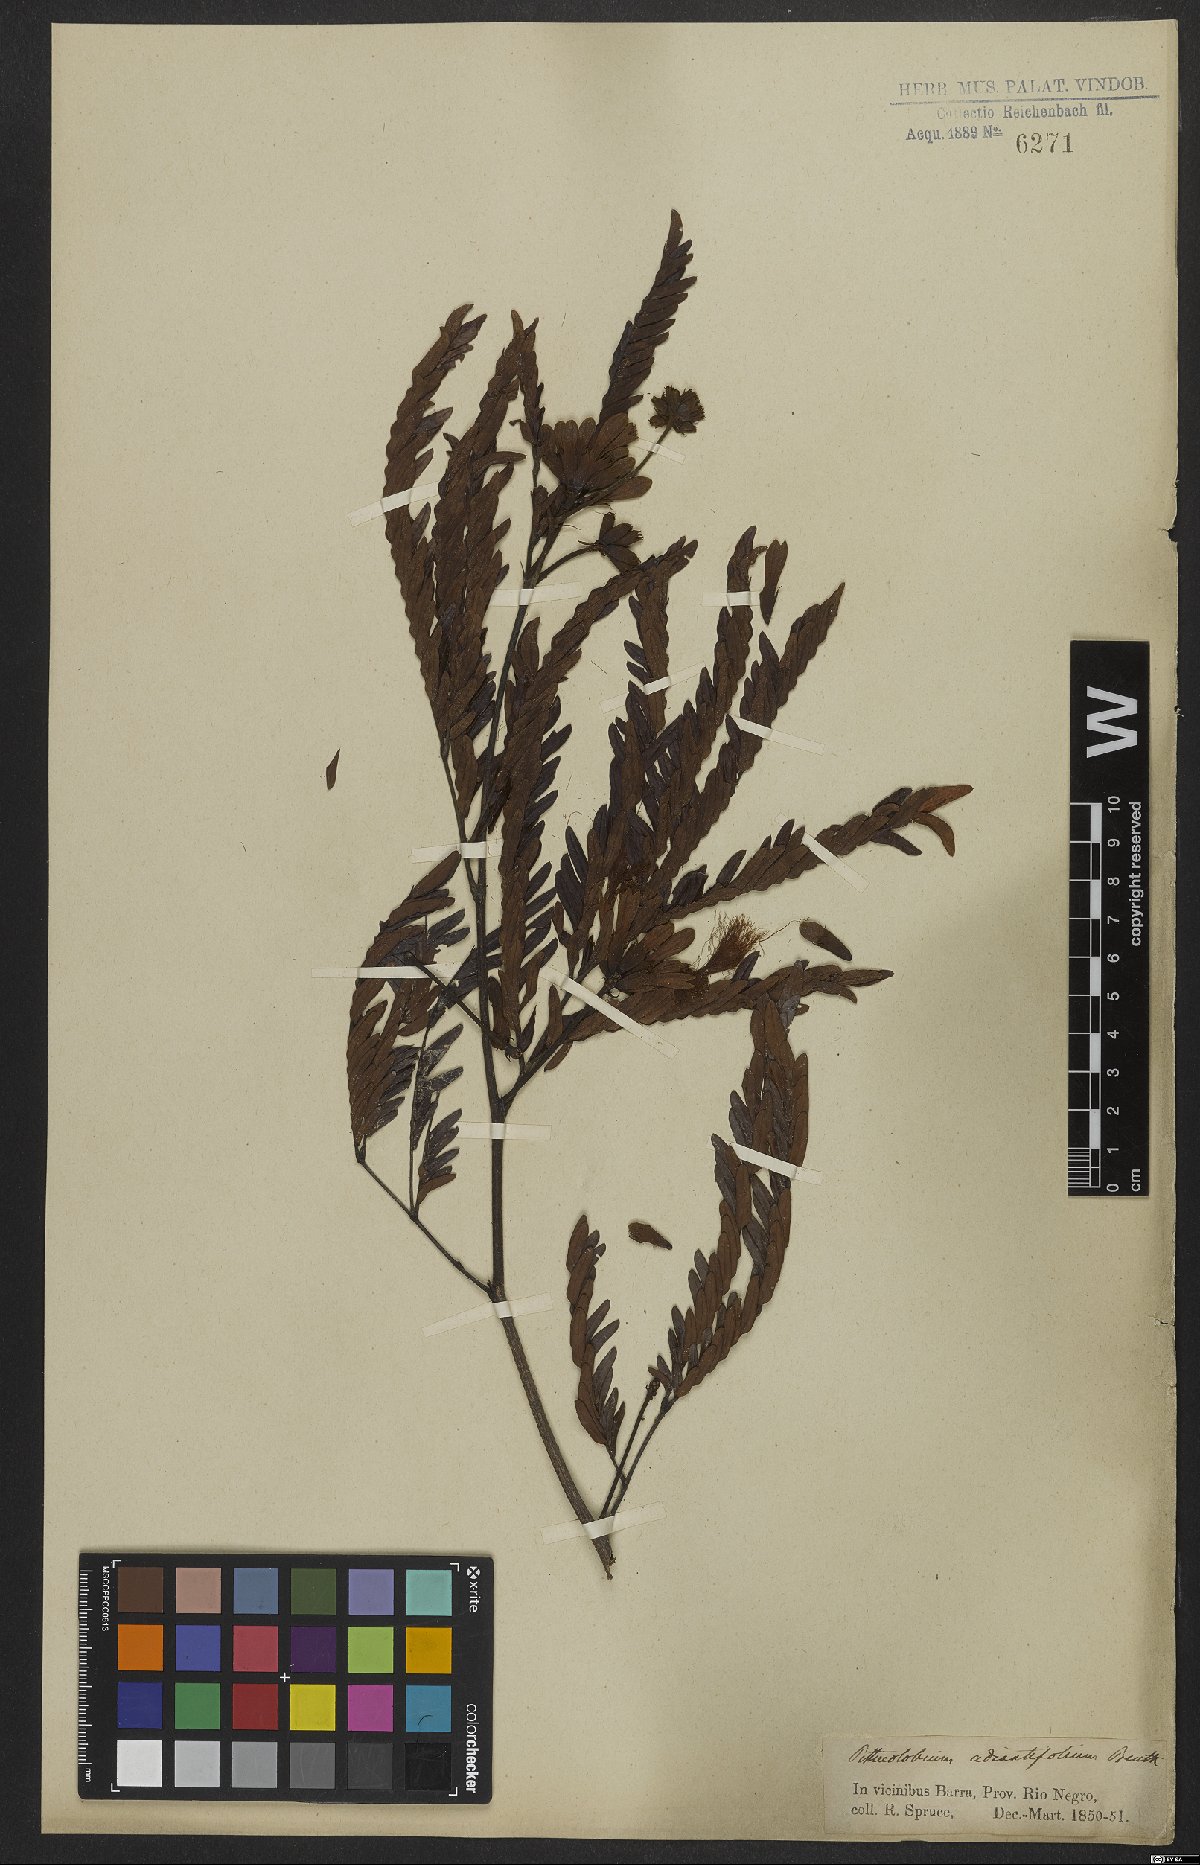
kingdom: Plantae
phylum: Tracheophyta
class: Magnoliopsida
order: Fabales
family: Fabaceae
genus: Macrosamanea
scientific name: Macrosamanea discolor
